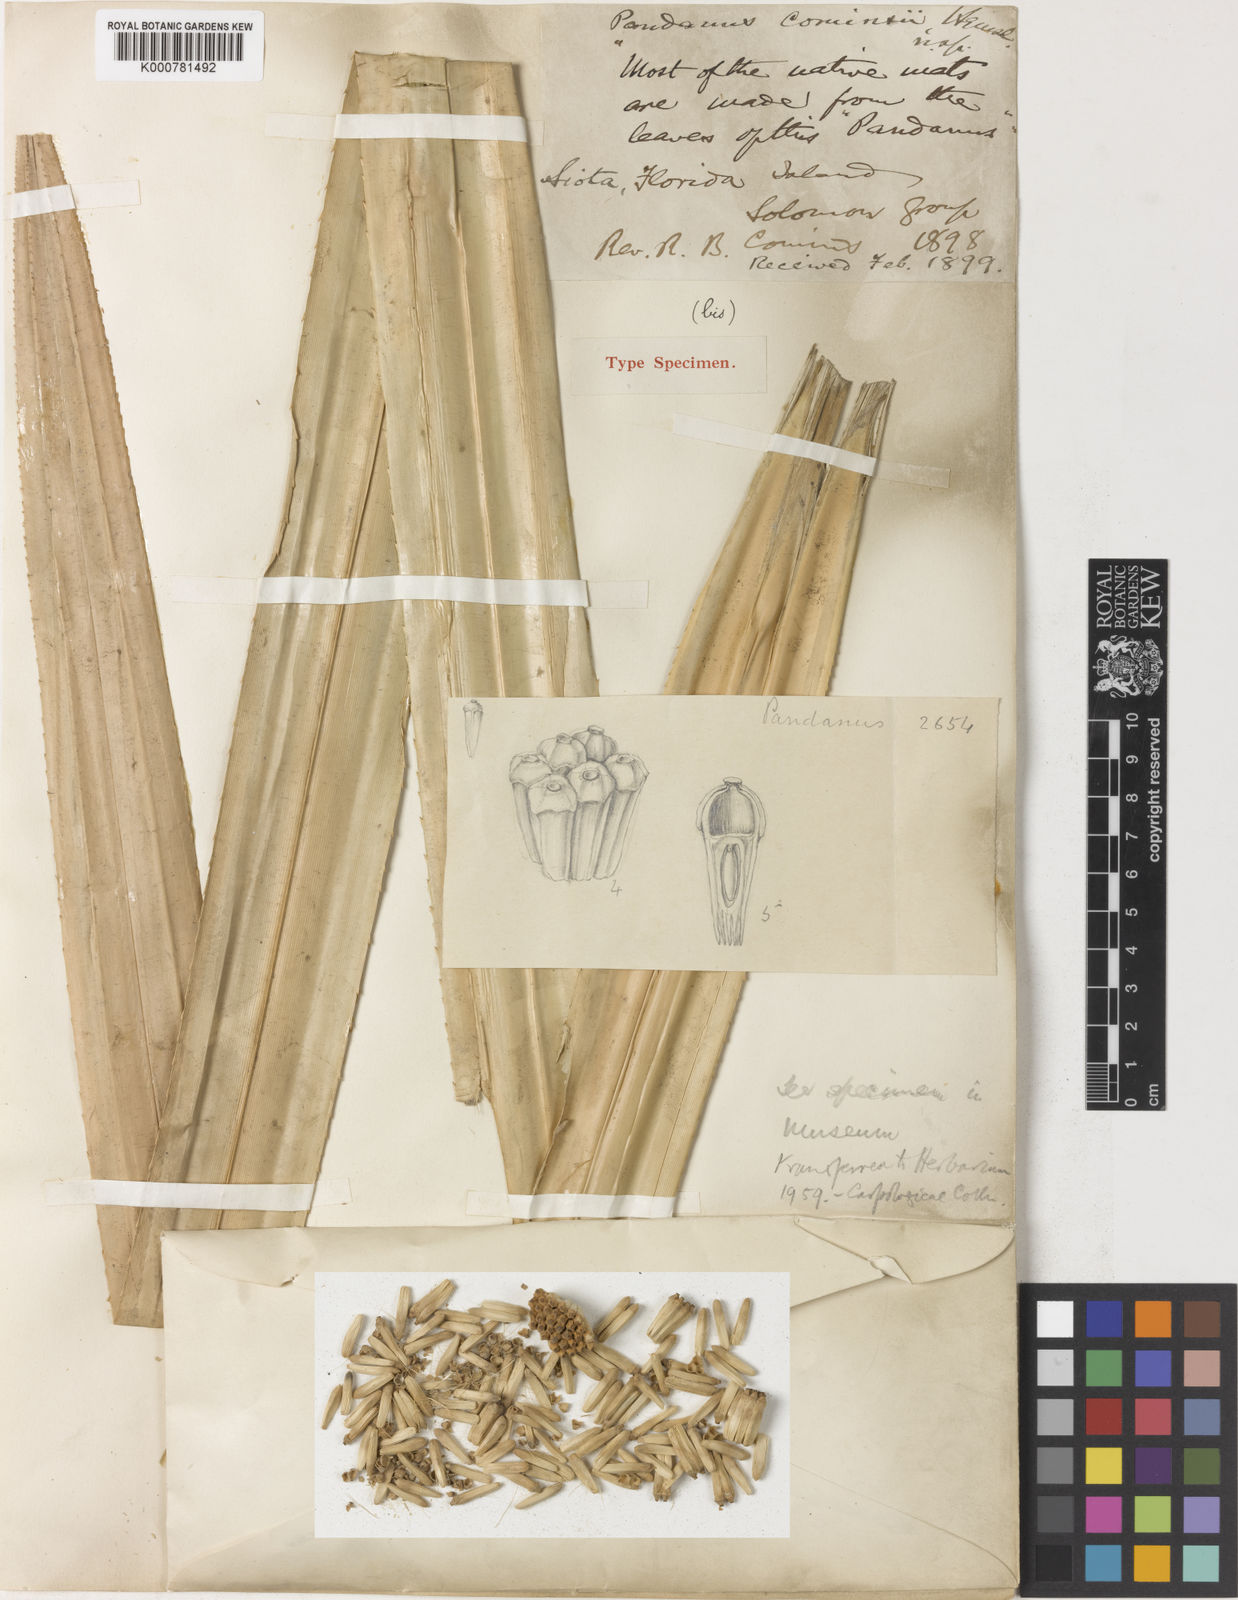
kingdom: Plantae
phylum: Tracheophyta
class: Liliopsida
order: Pandanales
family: Pandanaceae
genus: Pandanus
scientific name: Pandanus conoideus
